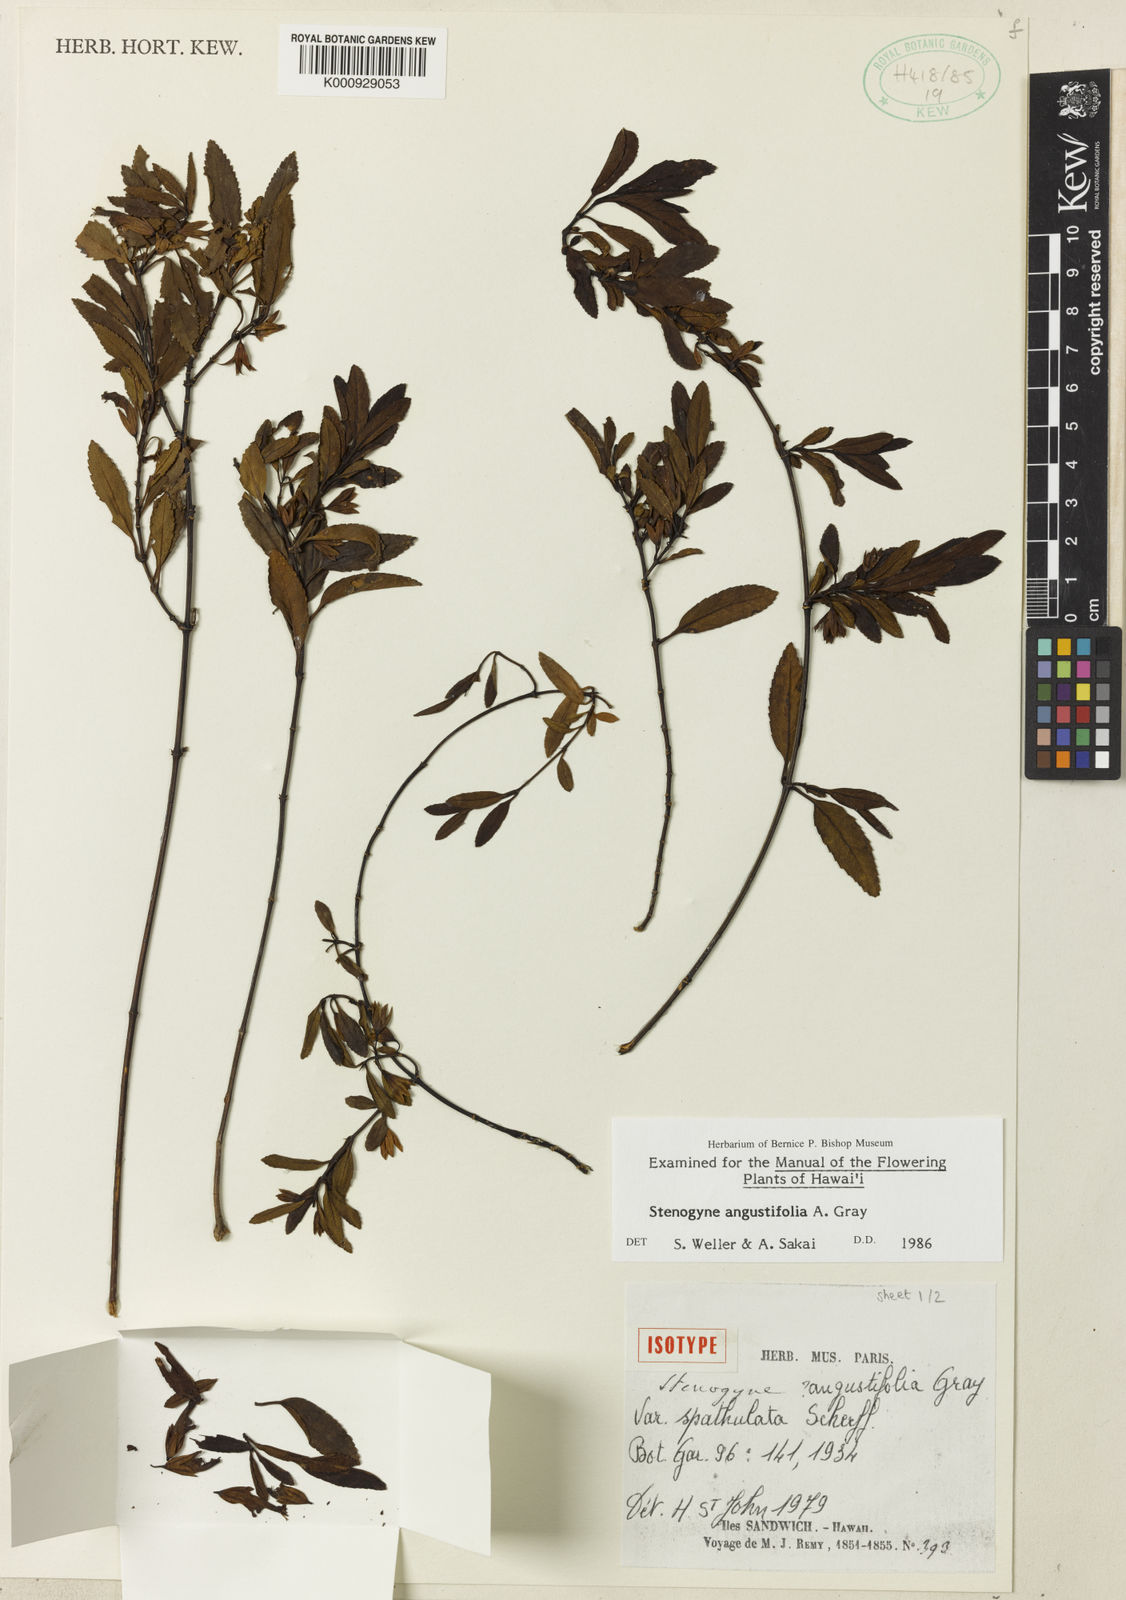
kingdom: Plantae
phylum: Tracheophyta
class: Magnoliopsida
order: Lamiales
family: Lamiaceae
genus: Stenogyne
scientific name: Stenogyne angustifolia
